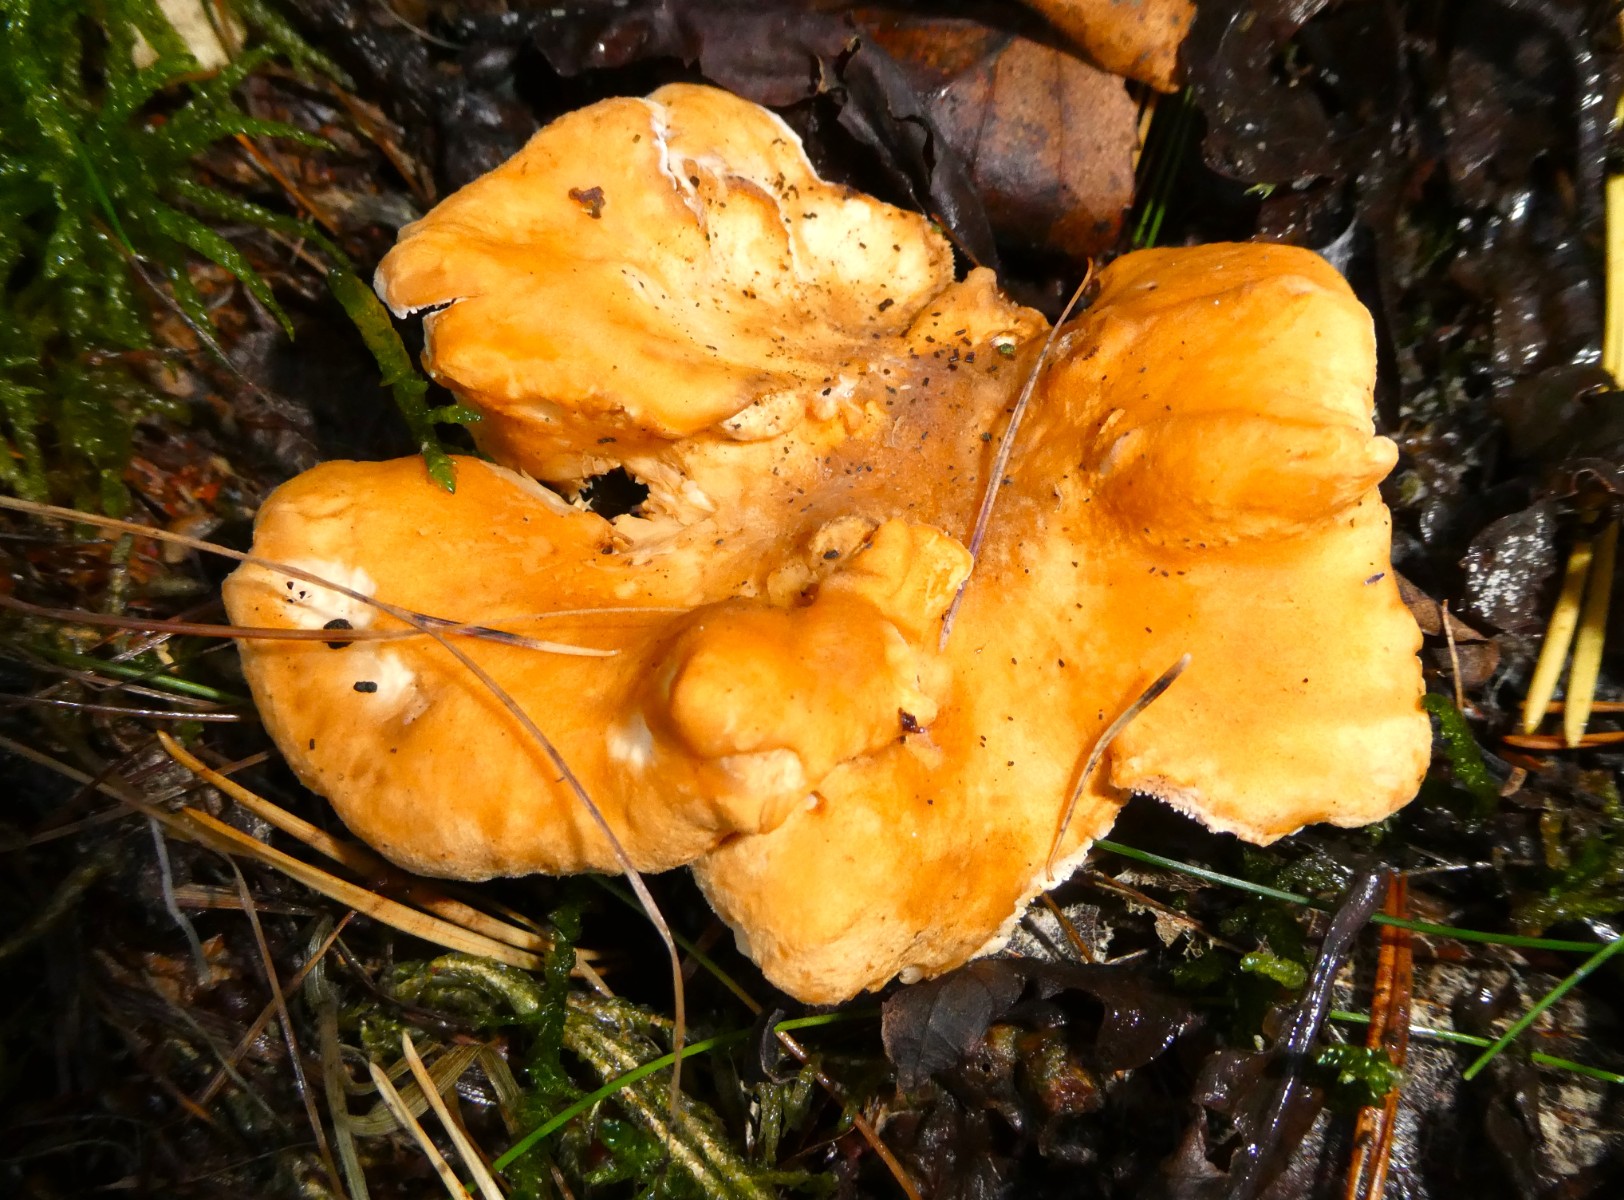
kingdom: Fungi
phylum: Basidiomycota
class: Agaricomycetes
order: Cantharellales
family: Hydnaceae
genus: Hydnum
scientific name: Hydnum rufescens
